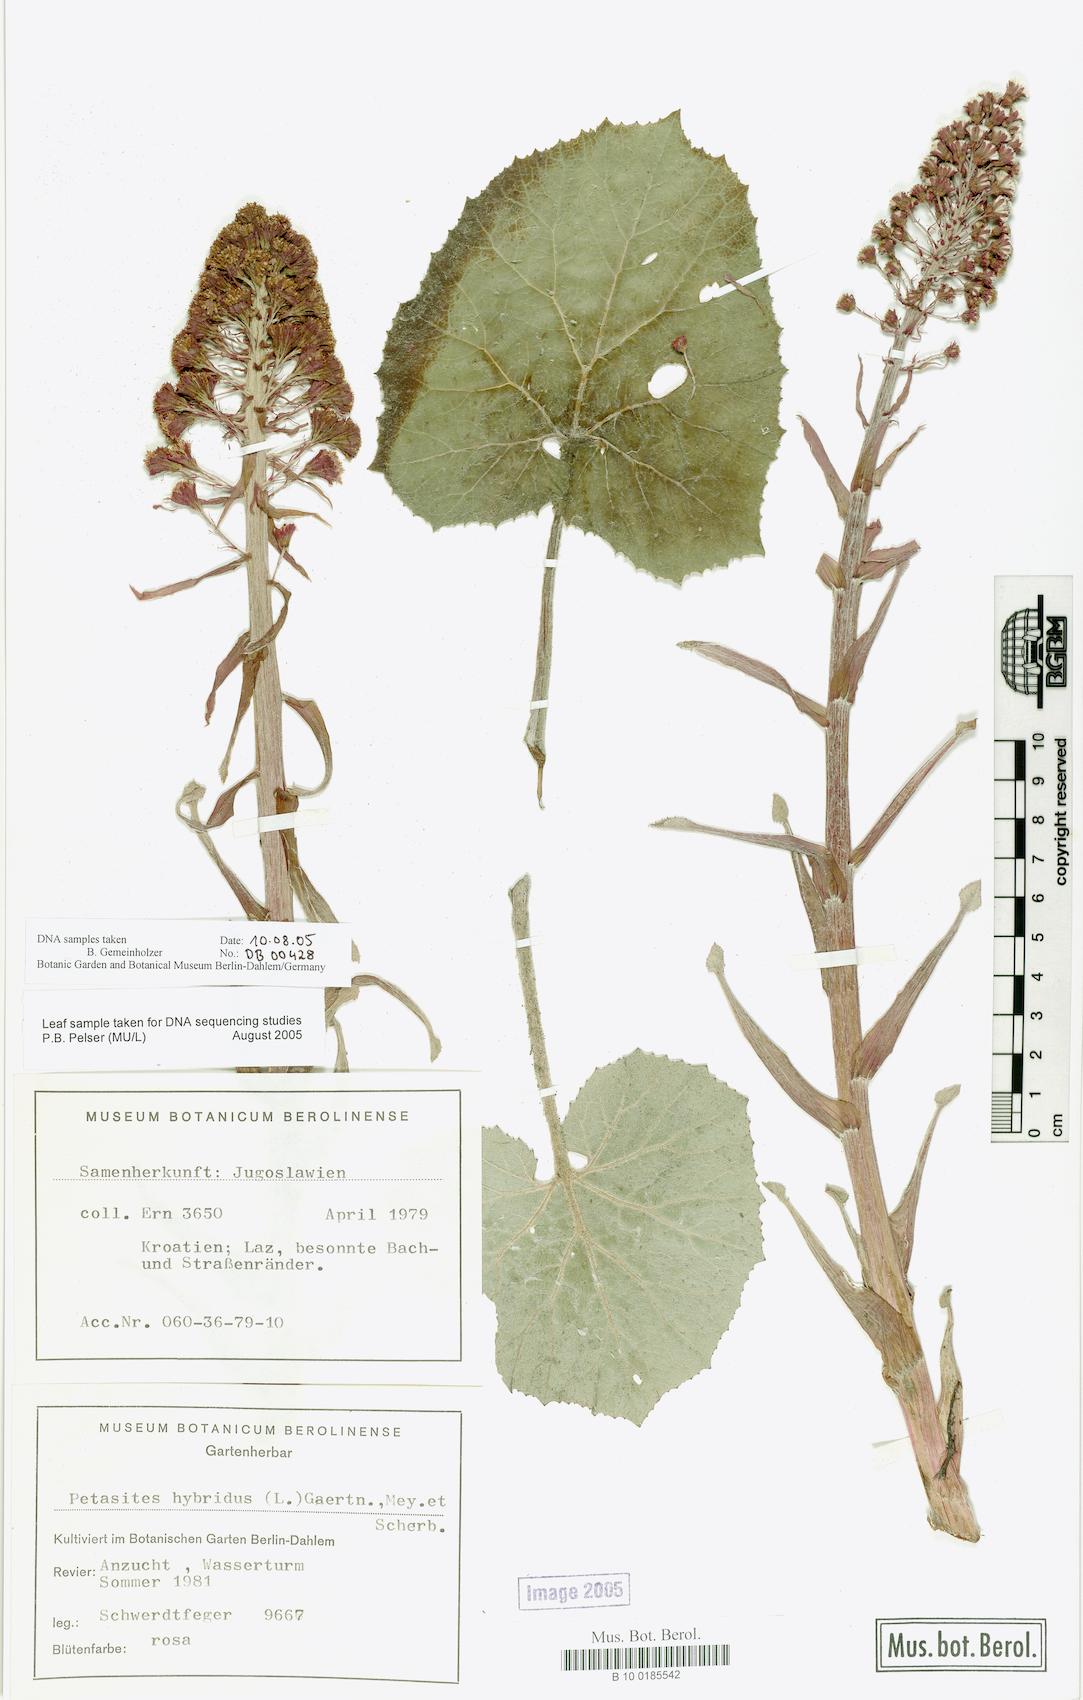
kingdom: Plantae
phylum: Tracheophyta
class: Magnoliopsida
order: Asterales
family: Asteraceae
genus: Petasites
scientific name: Petasites hybridus
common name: Butterbur
